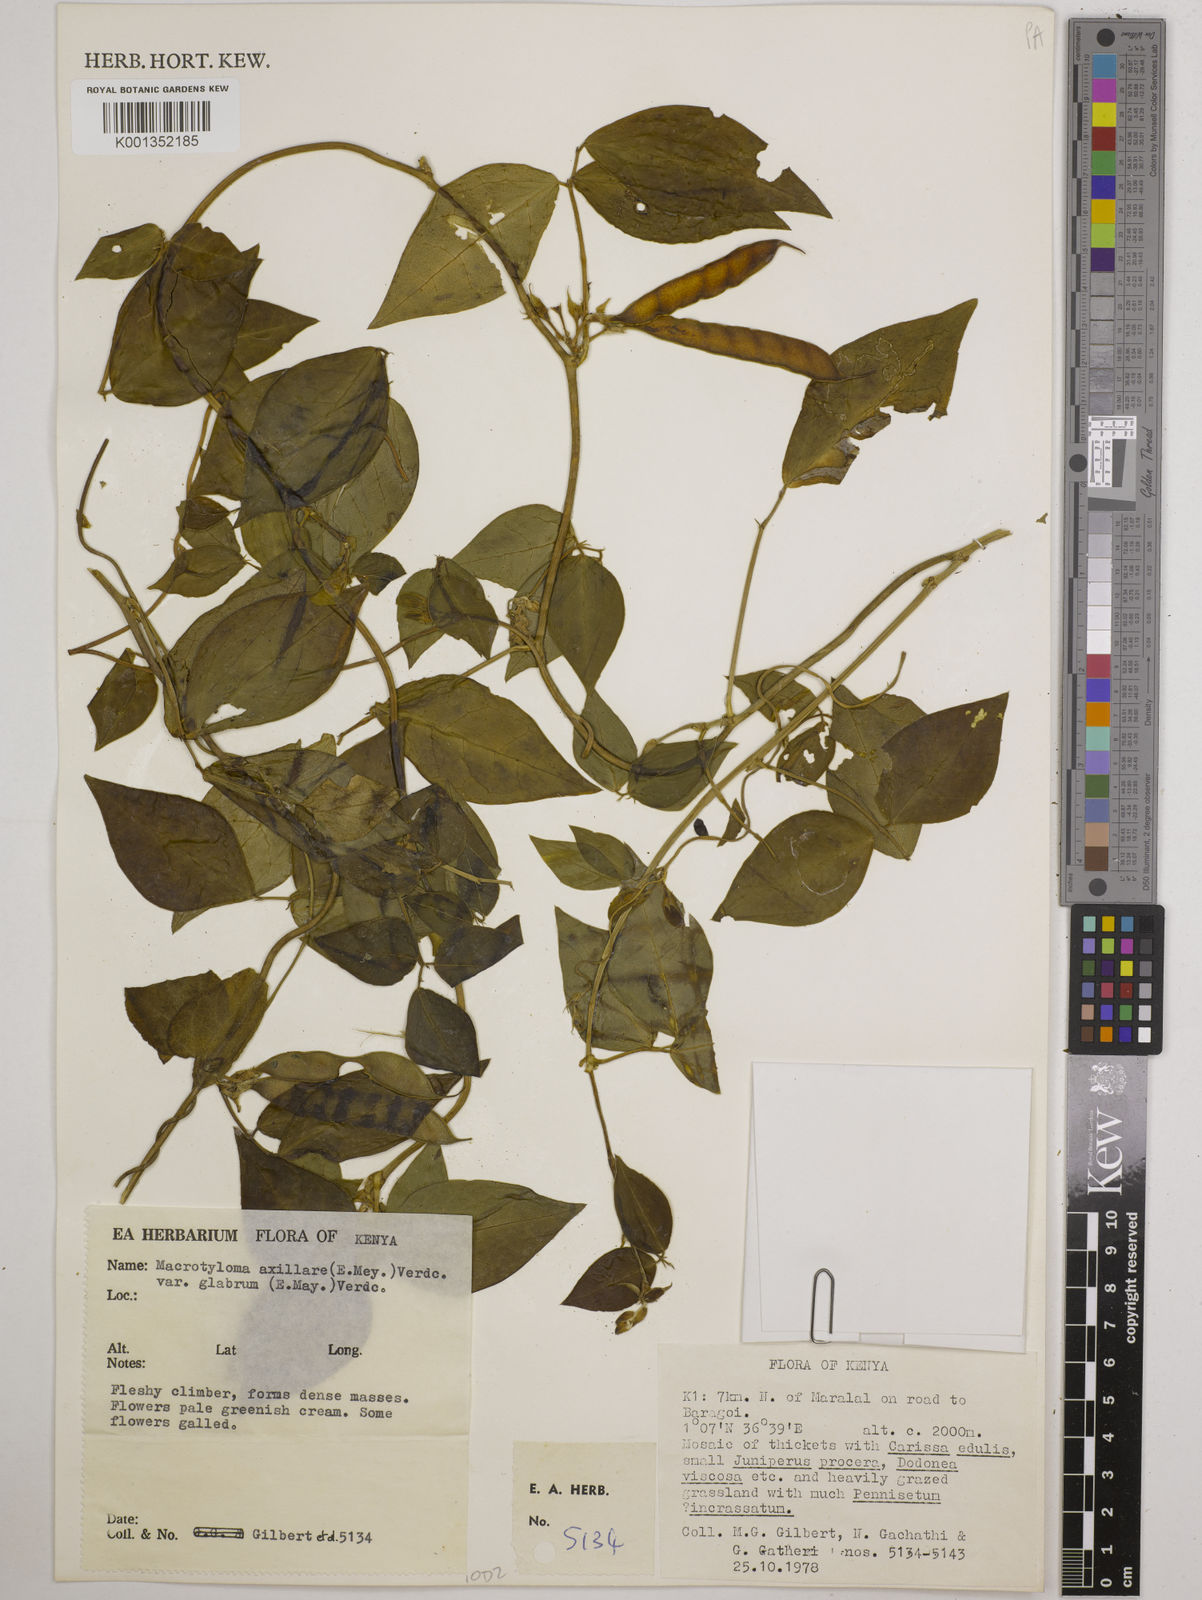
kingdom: Plantae
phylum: Tracheophyta
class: Magnoliopsida
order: Fabales
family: Fabaceae
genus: Macrotyloma
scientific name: Macrotyloma
